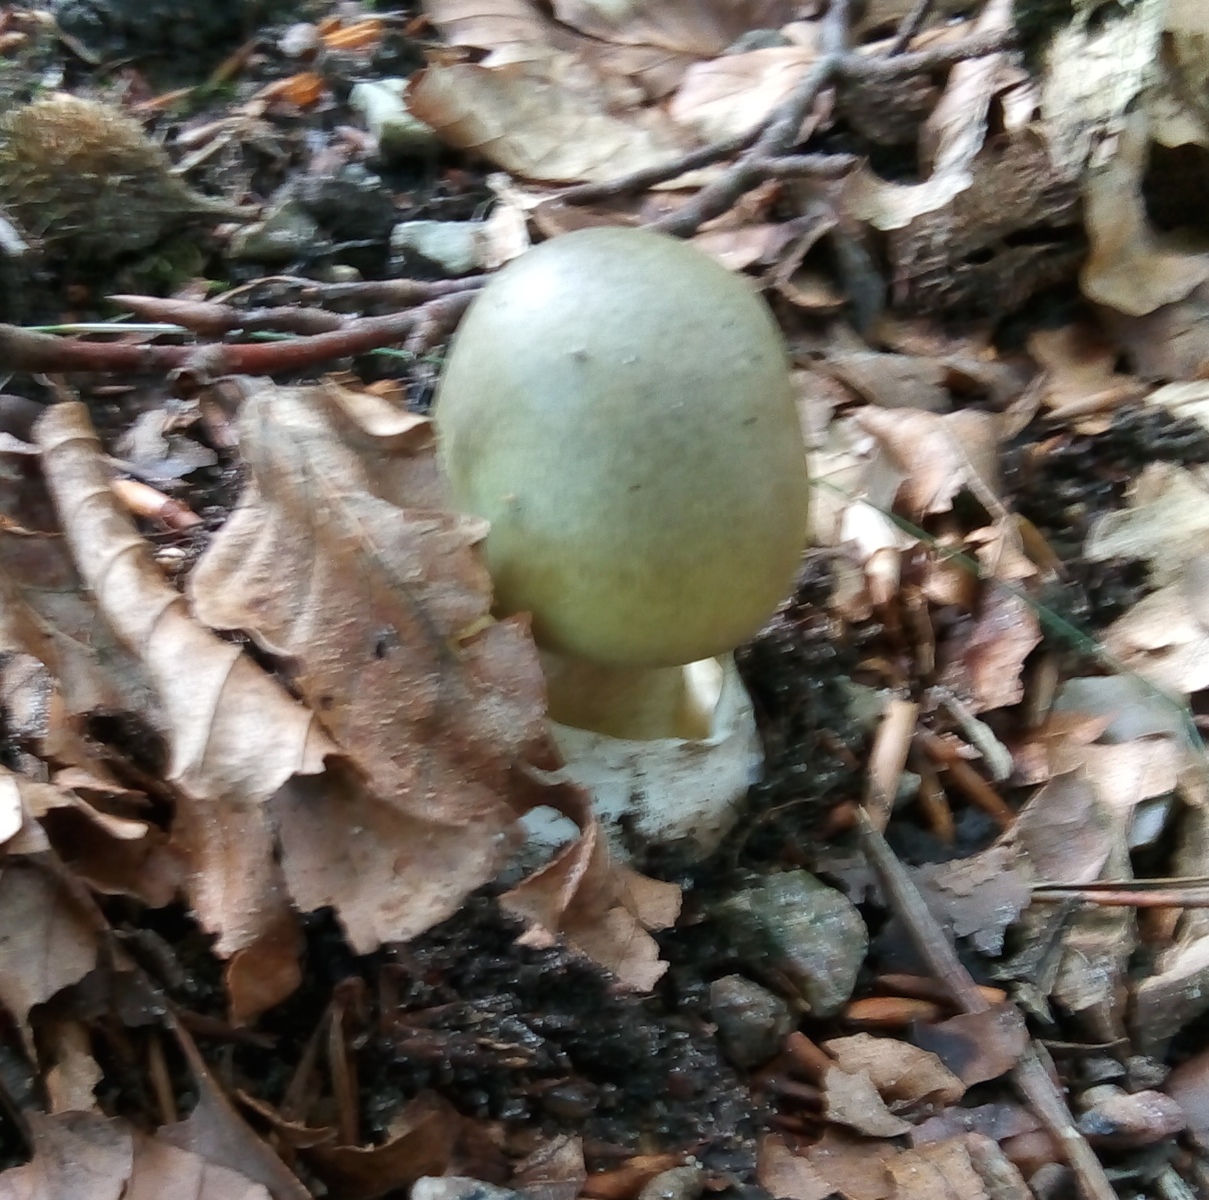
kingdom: Fungi
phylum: Basidiomycota
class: Agaricomycetes
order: Agaricales
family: Amanitaceae
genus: Amanita
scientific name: Amanita phalloides
